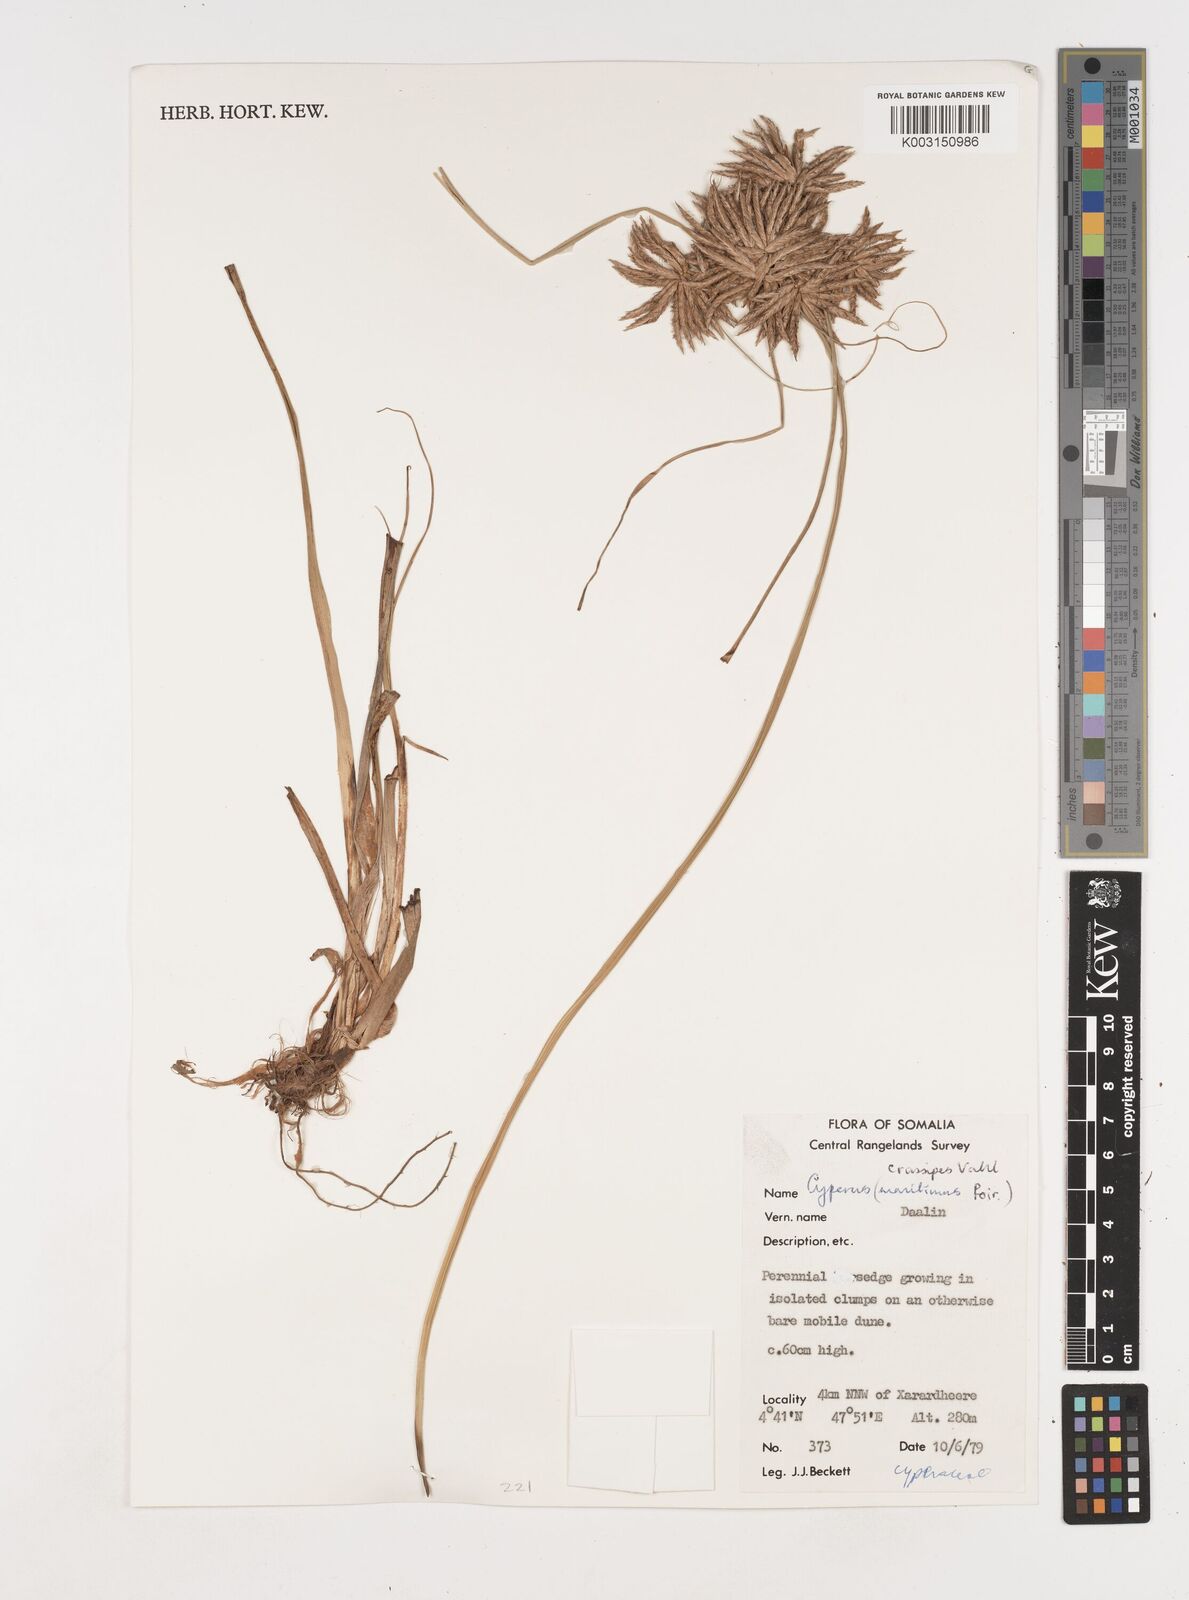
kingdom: Plantae
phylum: Tracheophyta
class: Liliopsida
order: Poales
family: Cyperaceae
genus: Cyperus
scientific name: Cyperus crassipes
